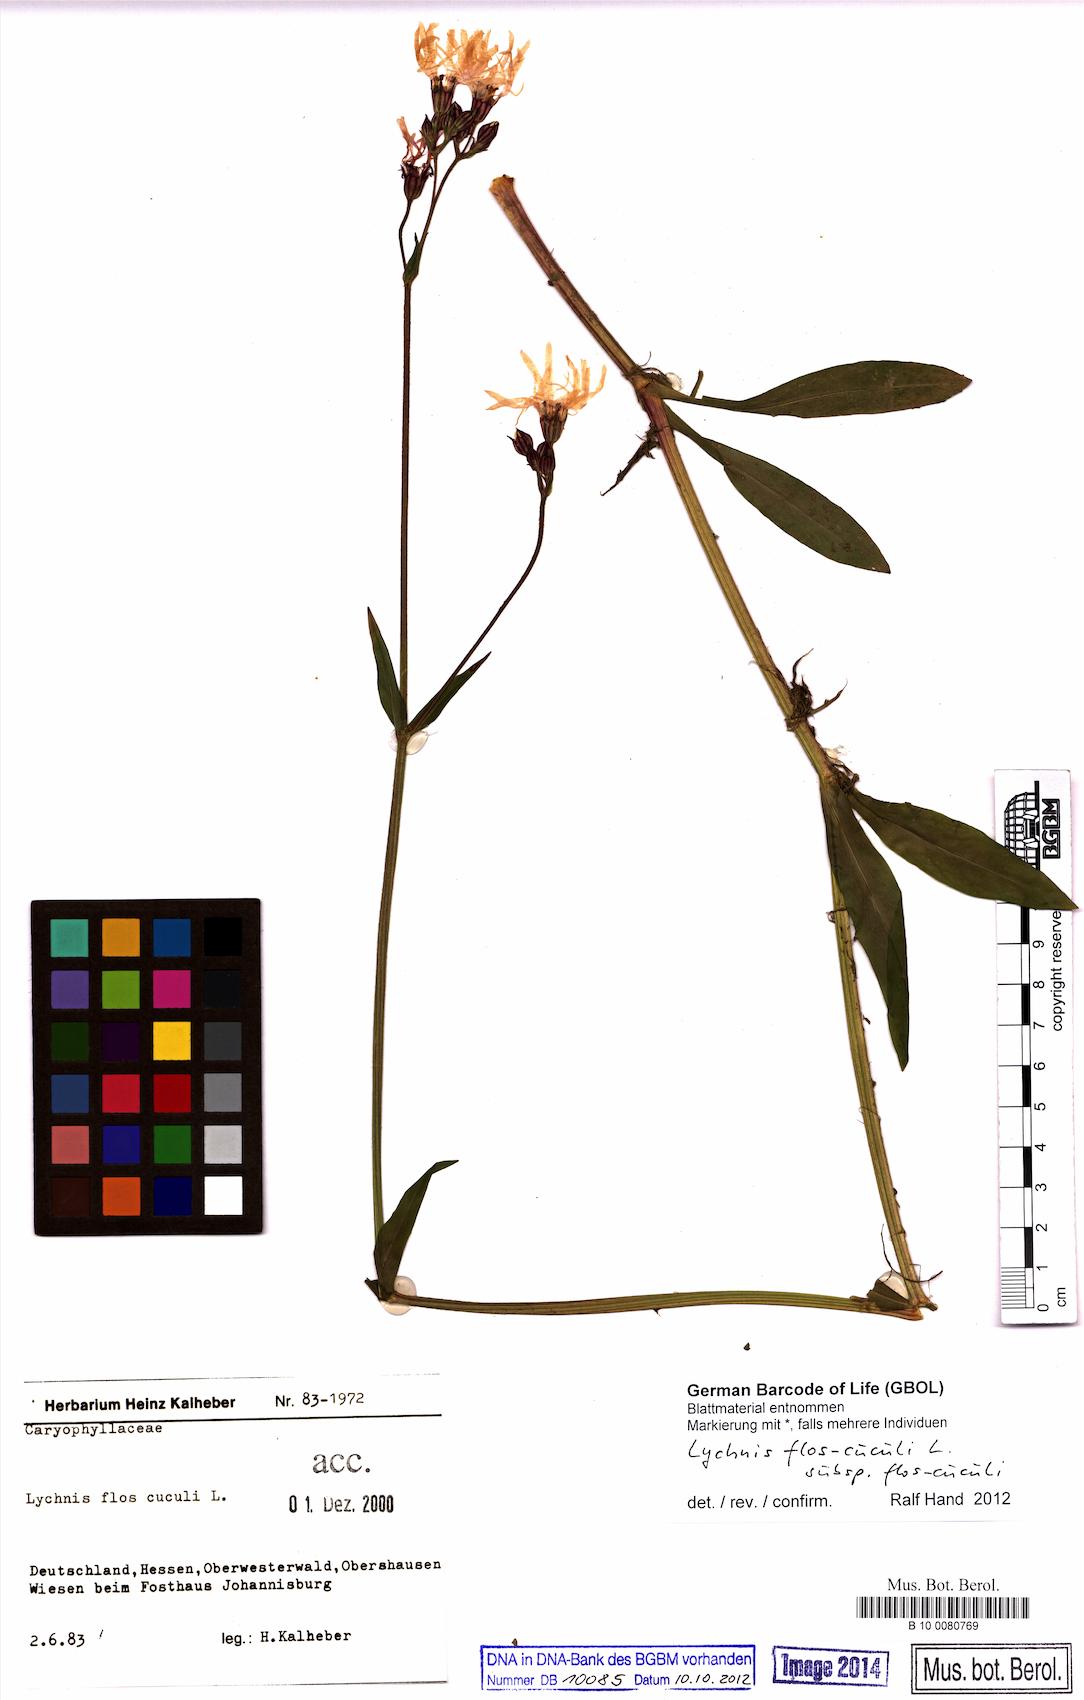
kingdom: Plantae
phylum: Tracheophyta
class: Magnoliopsida
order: Caryophyllales
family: Caryophyllaceae
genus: Silene
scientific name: Silene flos-cuculi
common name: Ragged-robin
